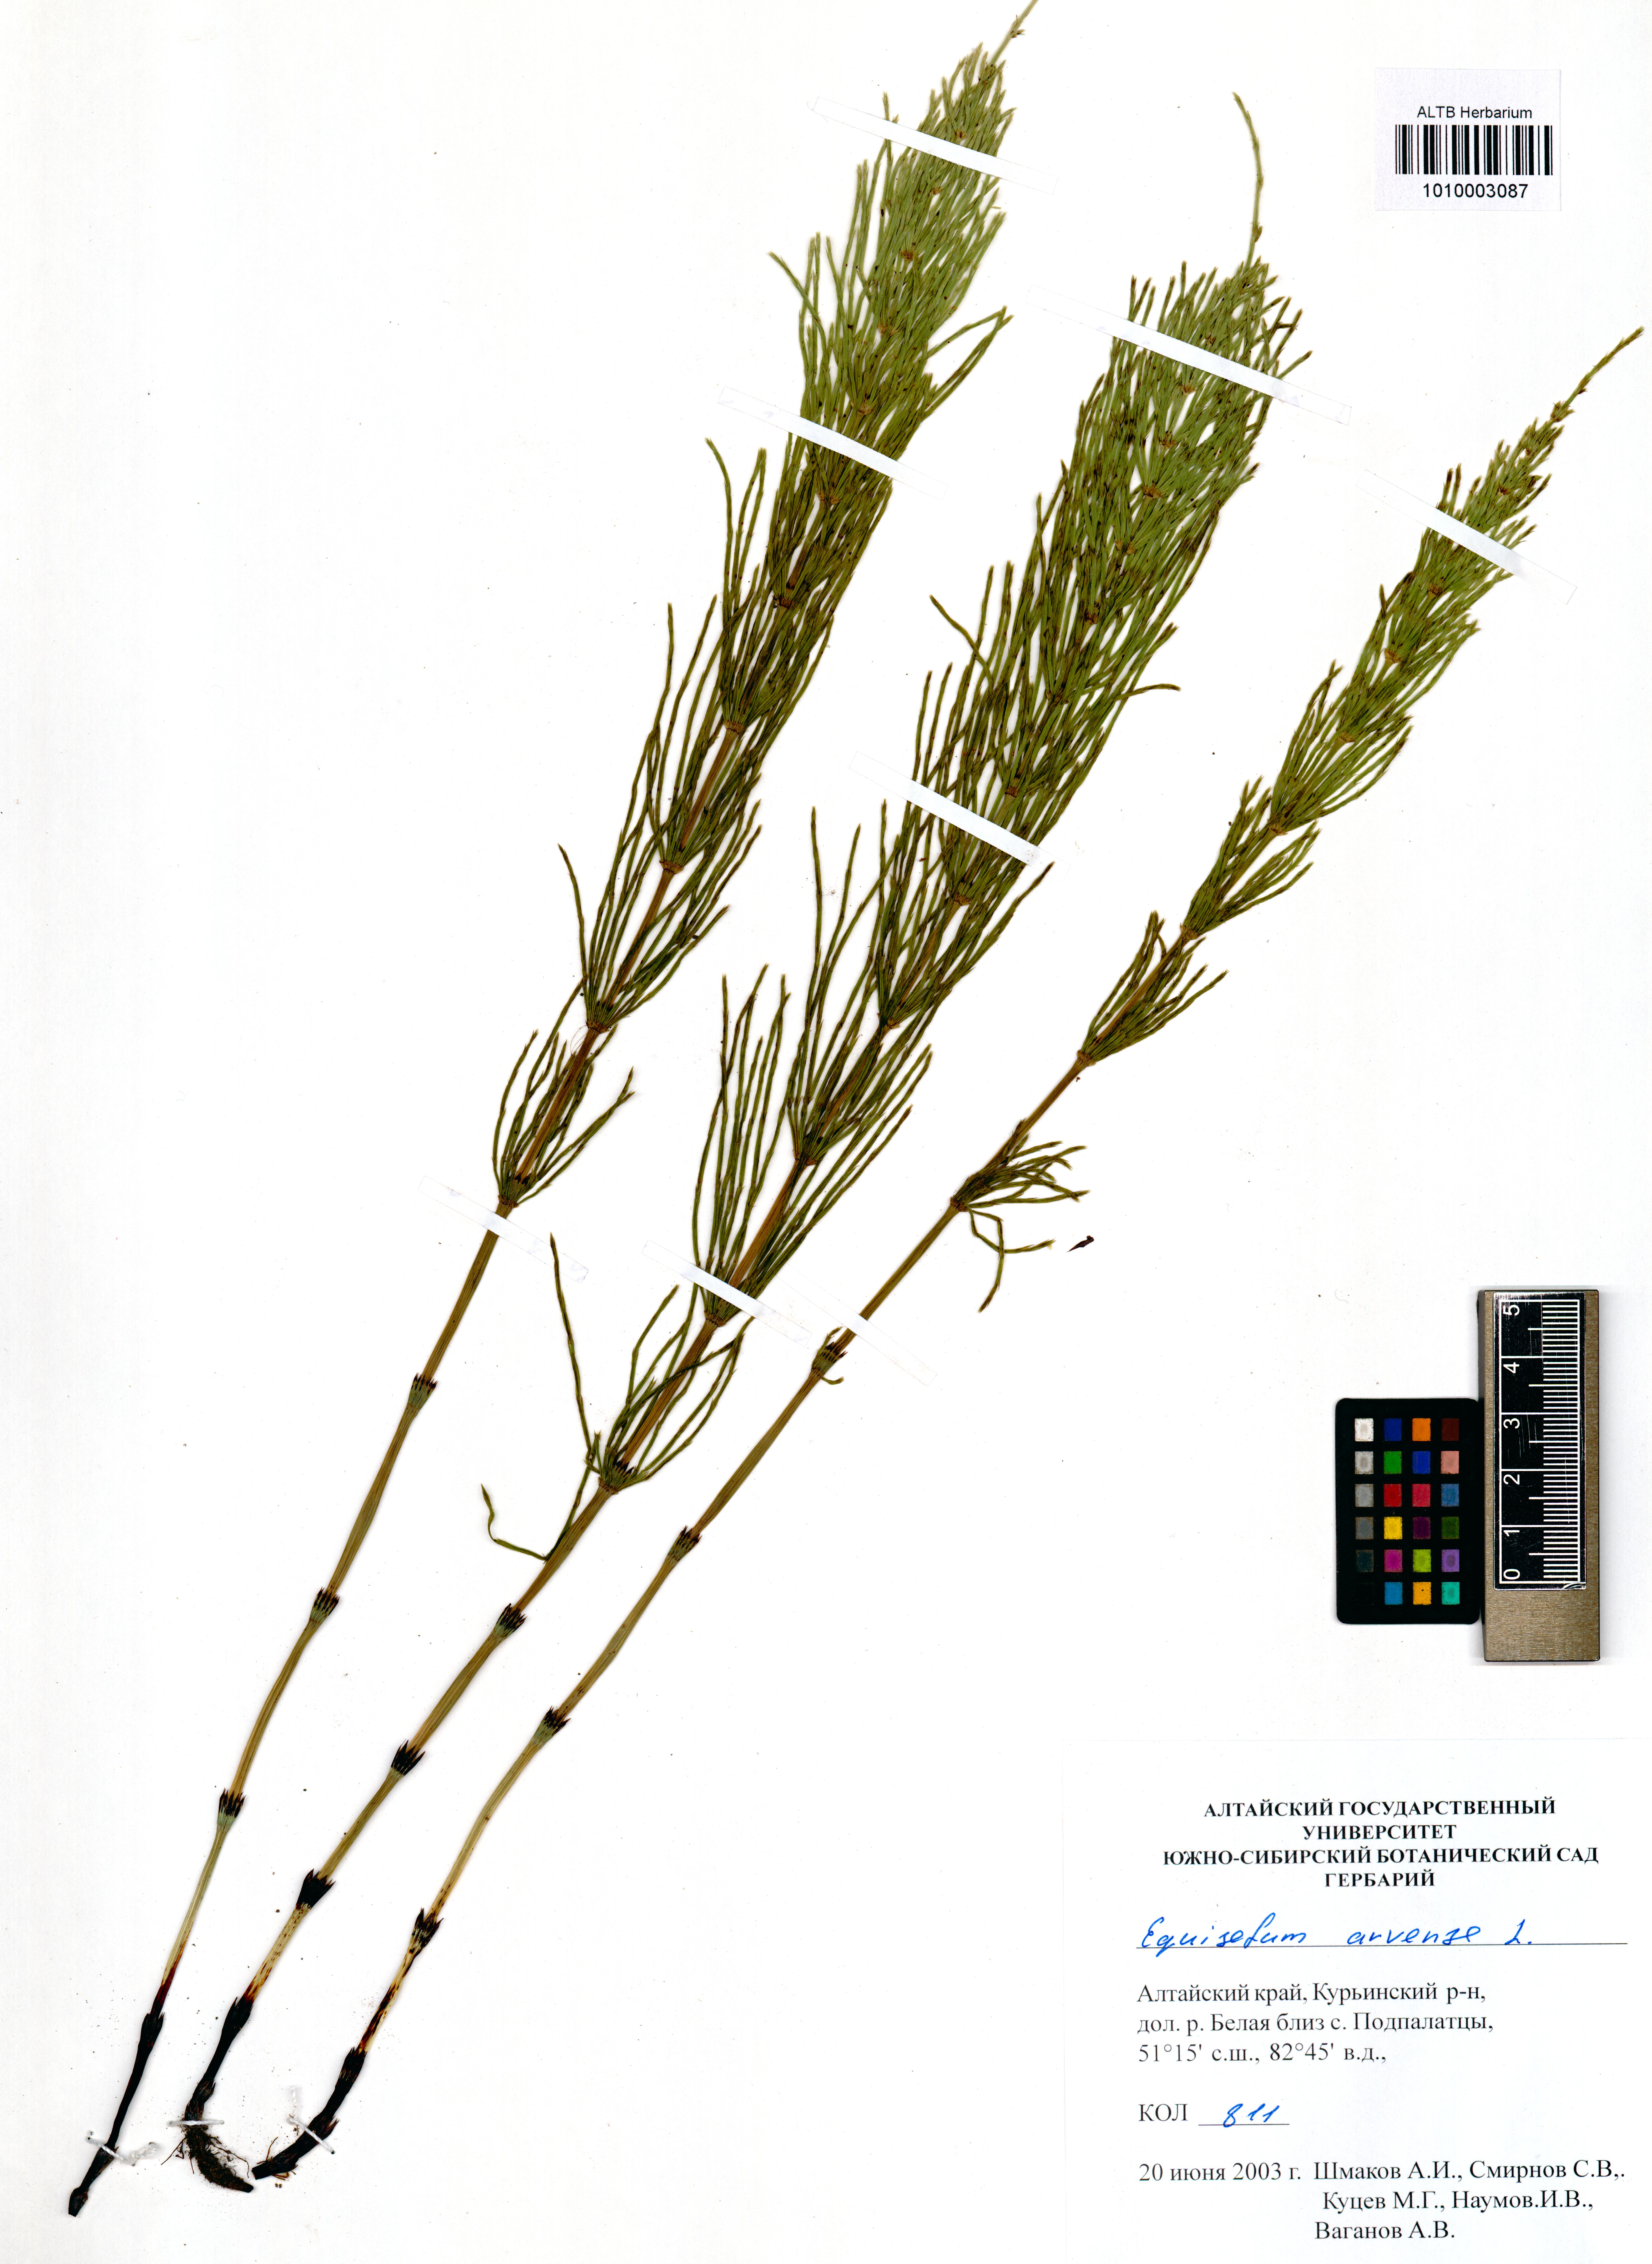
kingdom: Plantae
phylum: Tracheophyta
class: Polypodiopsida
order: Equisetales
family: Equisetaceae
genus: Equisetum
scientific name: Equisetum arvense
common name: Field horsetail
